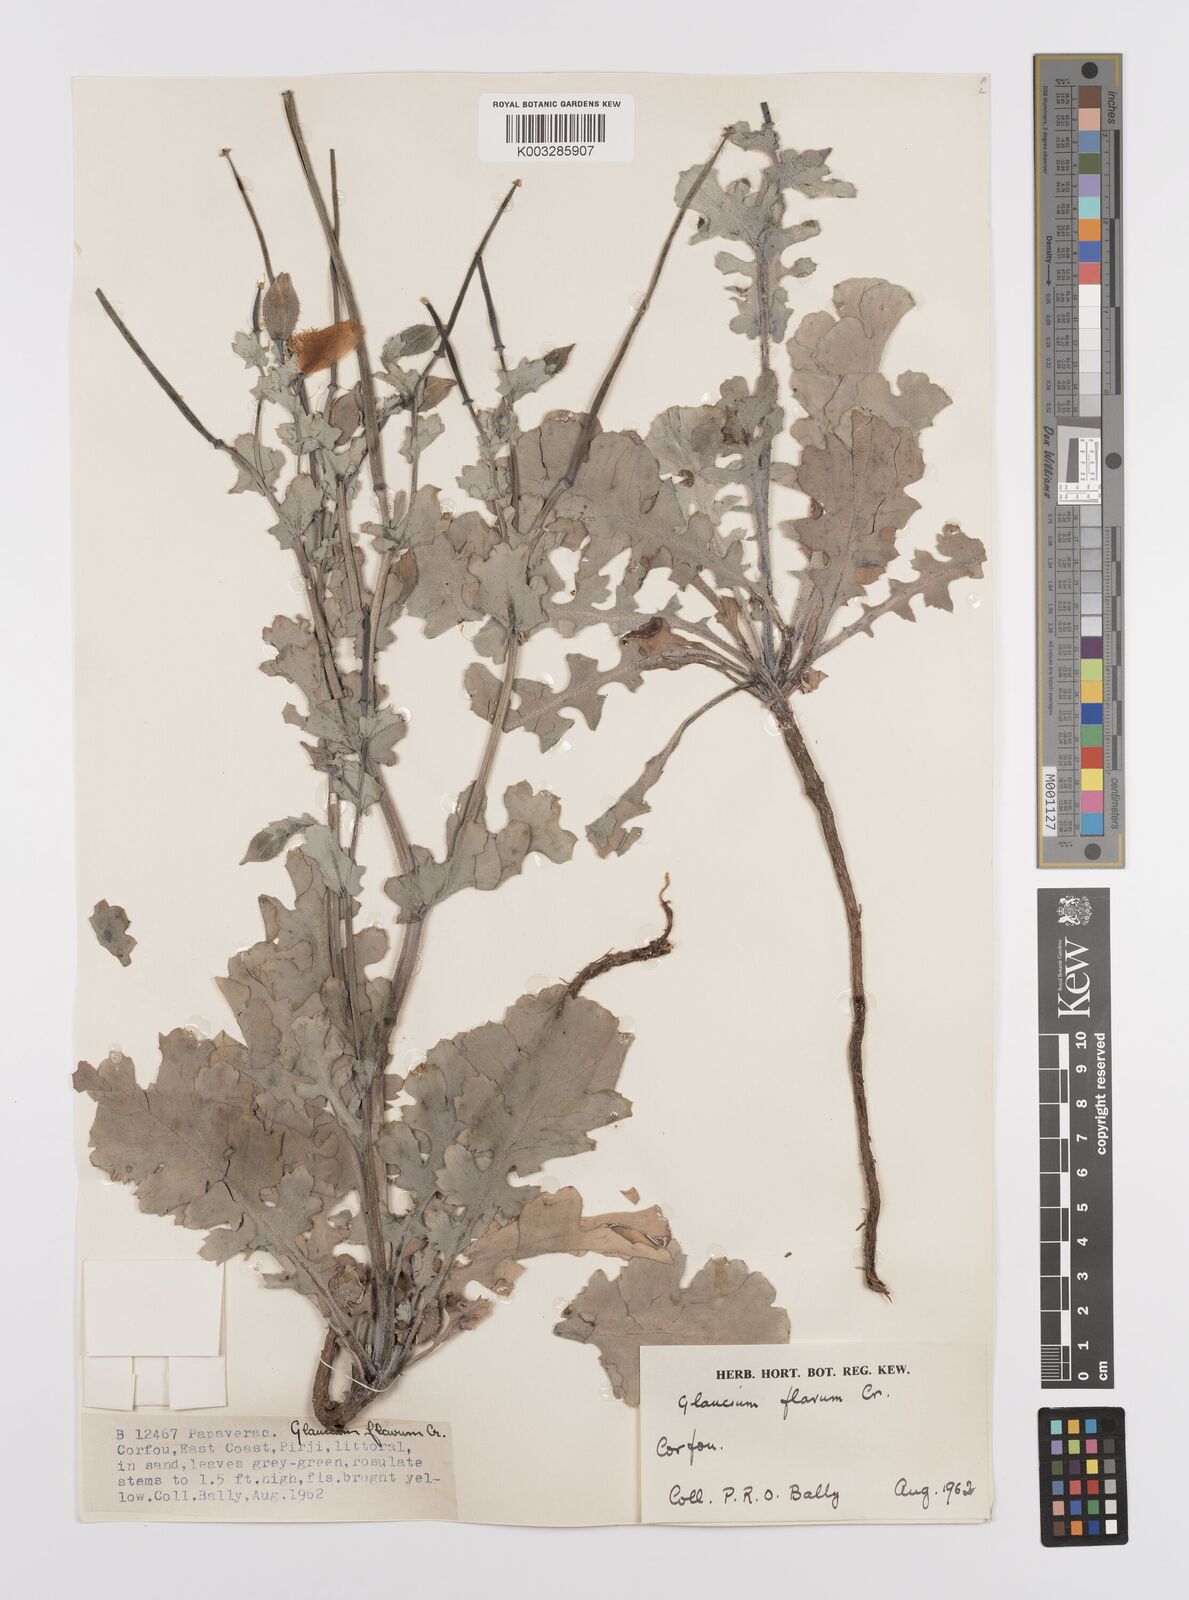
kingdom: Plantae
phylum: Tracheophyta
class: Magnoliopsida
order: Ranunculales
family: Papaveraceae
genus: Glaucium
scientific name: Glaucium flavum
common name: Yellow horned-poppy
